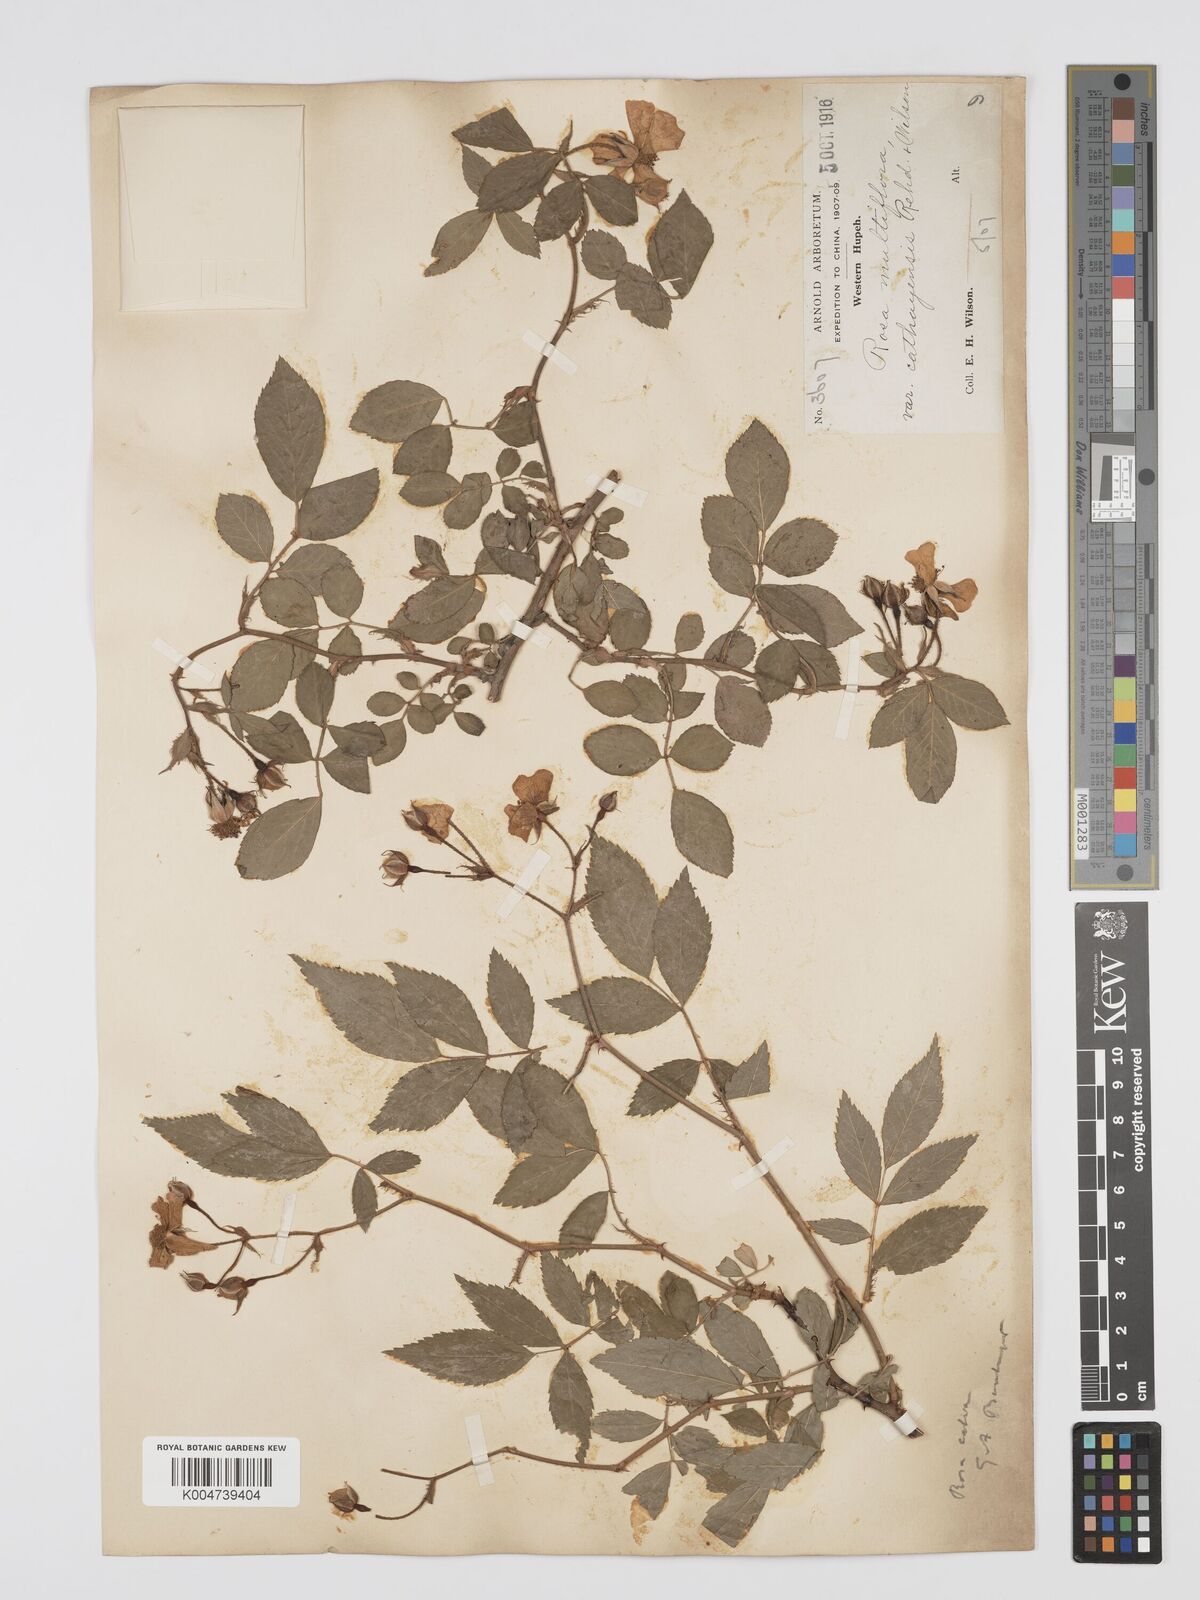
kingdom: Plantae
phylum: Tracheophyta
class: Magnoliopsida
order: Rosales
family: Rosaceae
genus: Rosa
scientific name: Rosa
